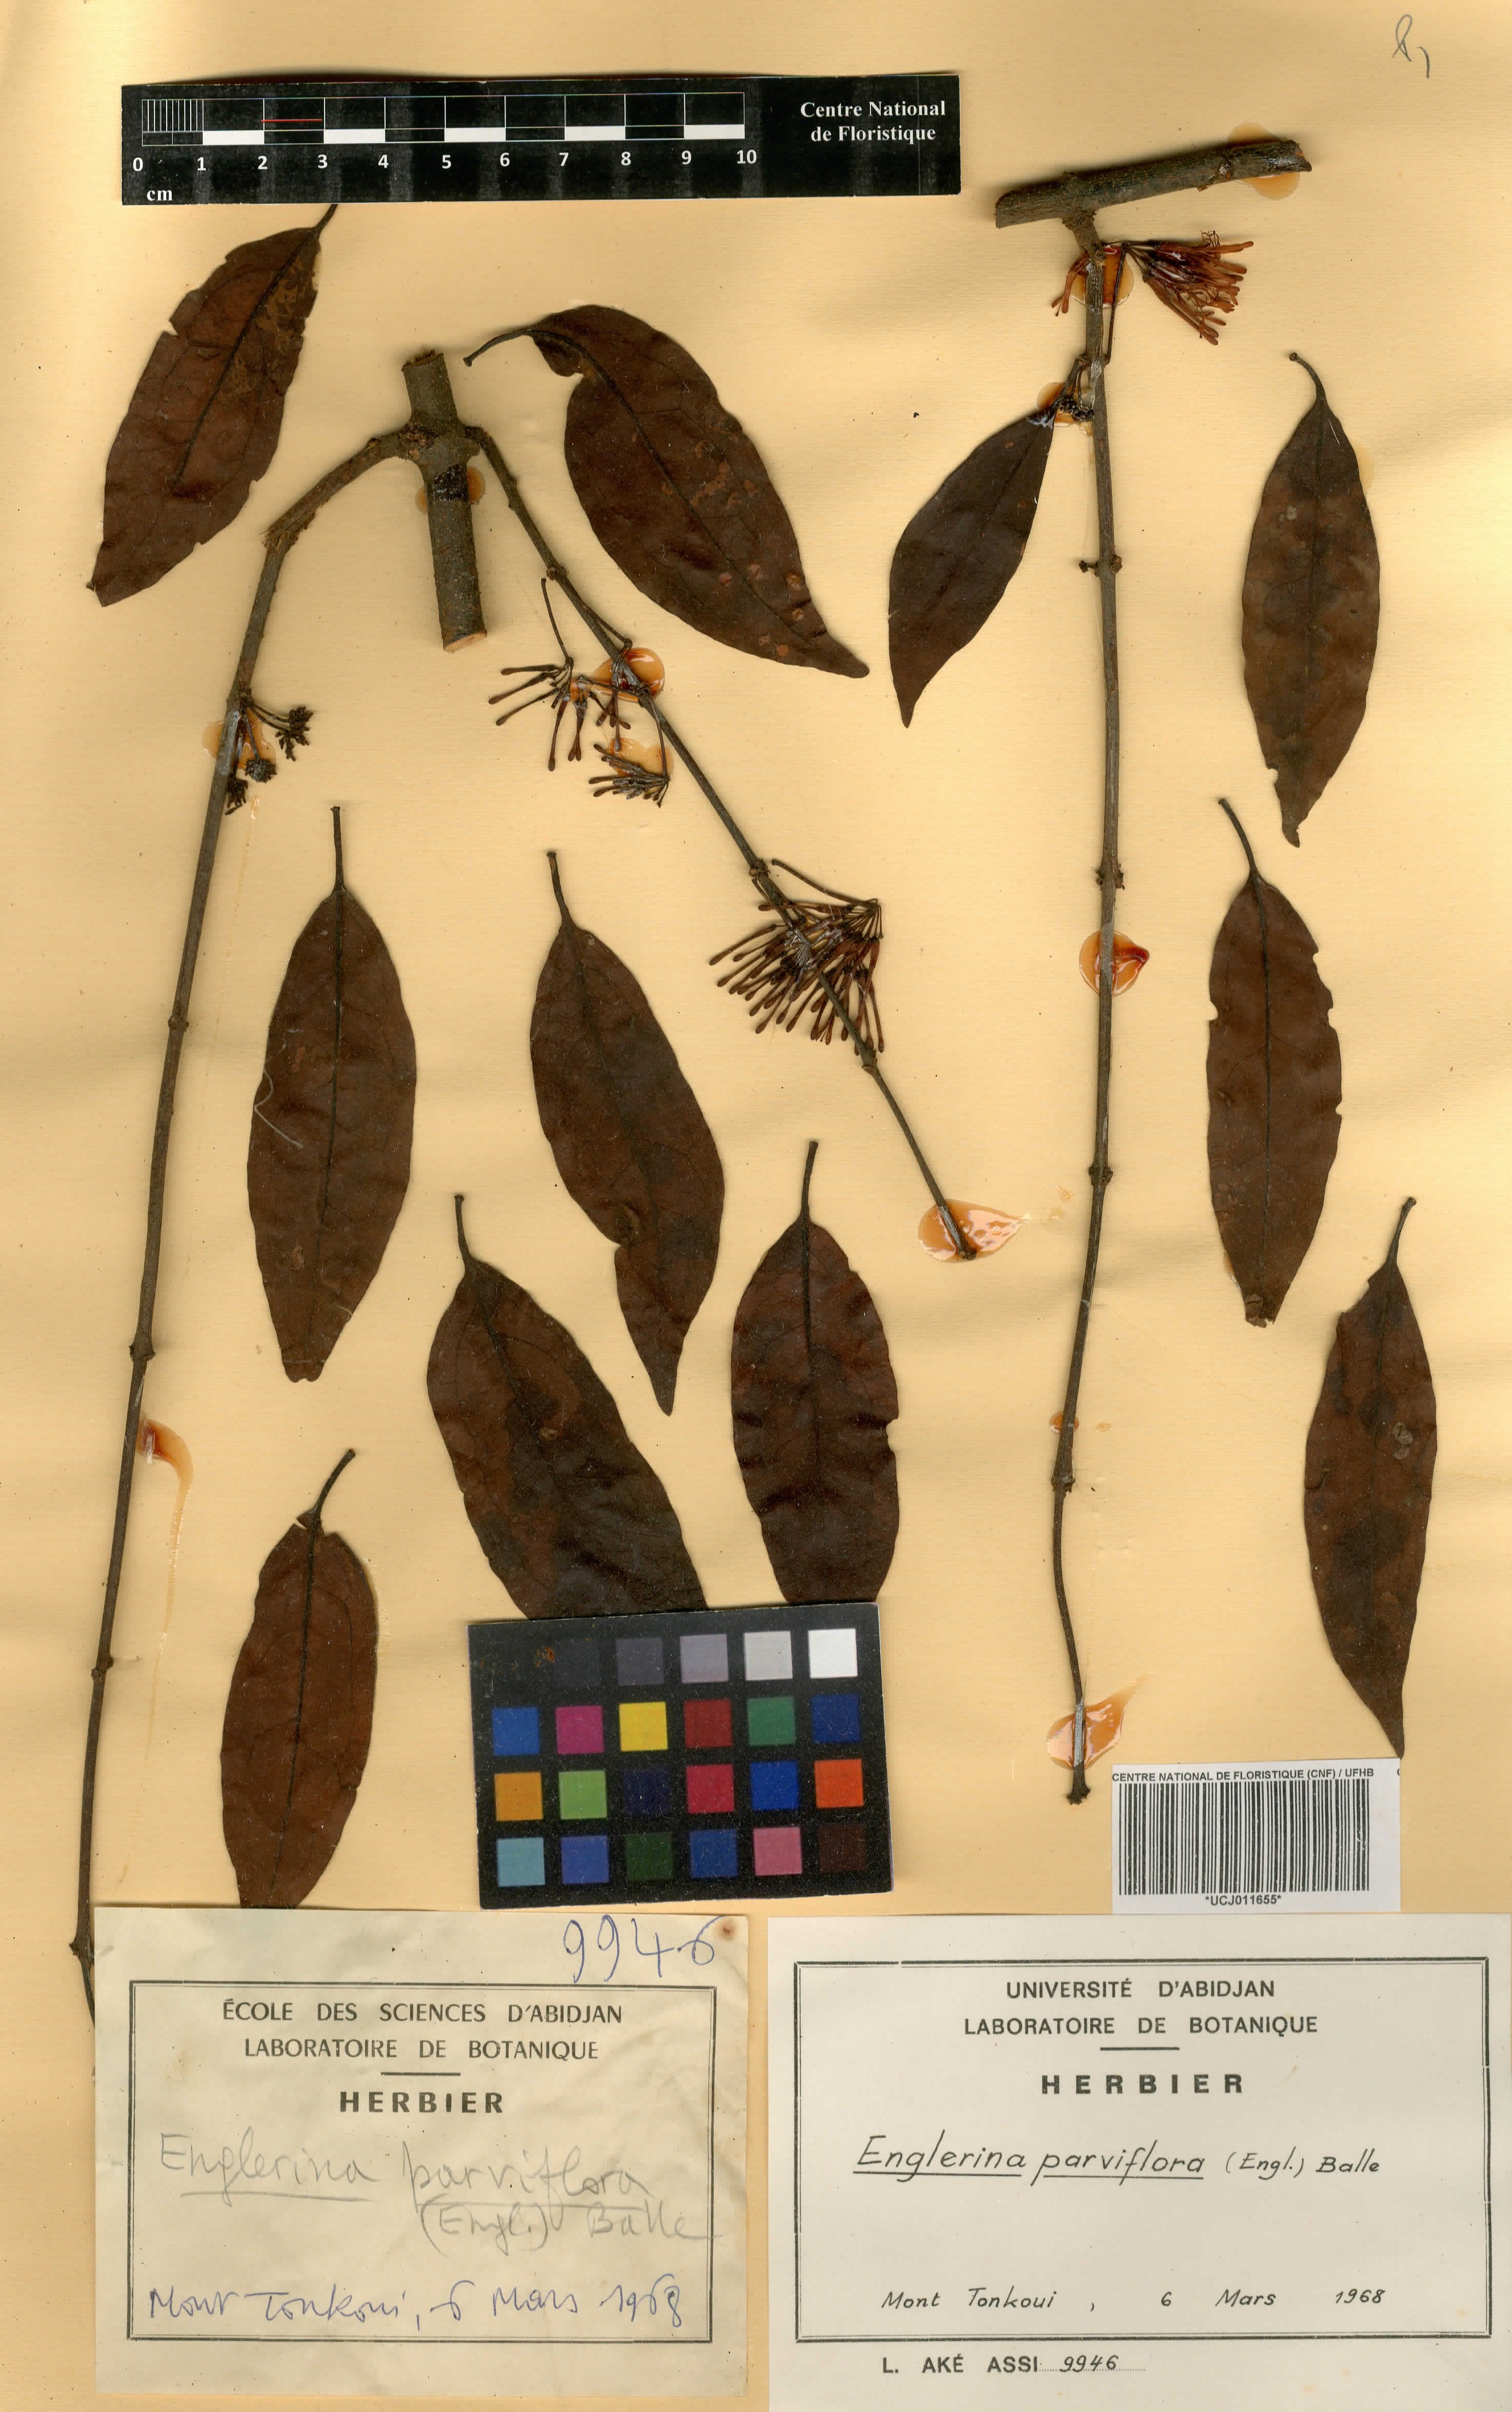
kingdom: Plantae
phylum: Tracheophyta
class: Magnoliopsida
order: Santalales
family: Loranthaceae
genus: Englerina
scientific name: Englerina parviflora
